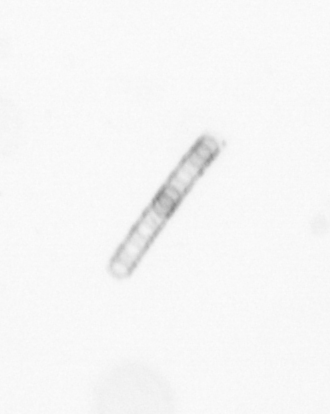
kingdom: Chromista
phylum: Ochrophyta
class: Bacillariophyceae
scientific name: Bacillariophyceae
